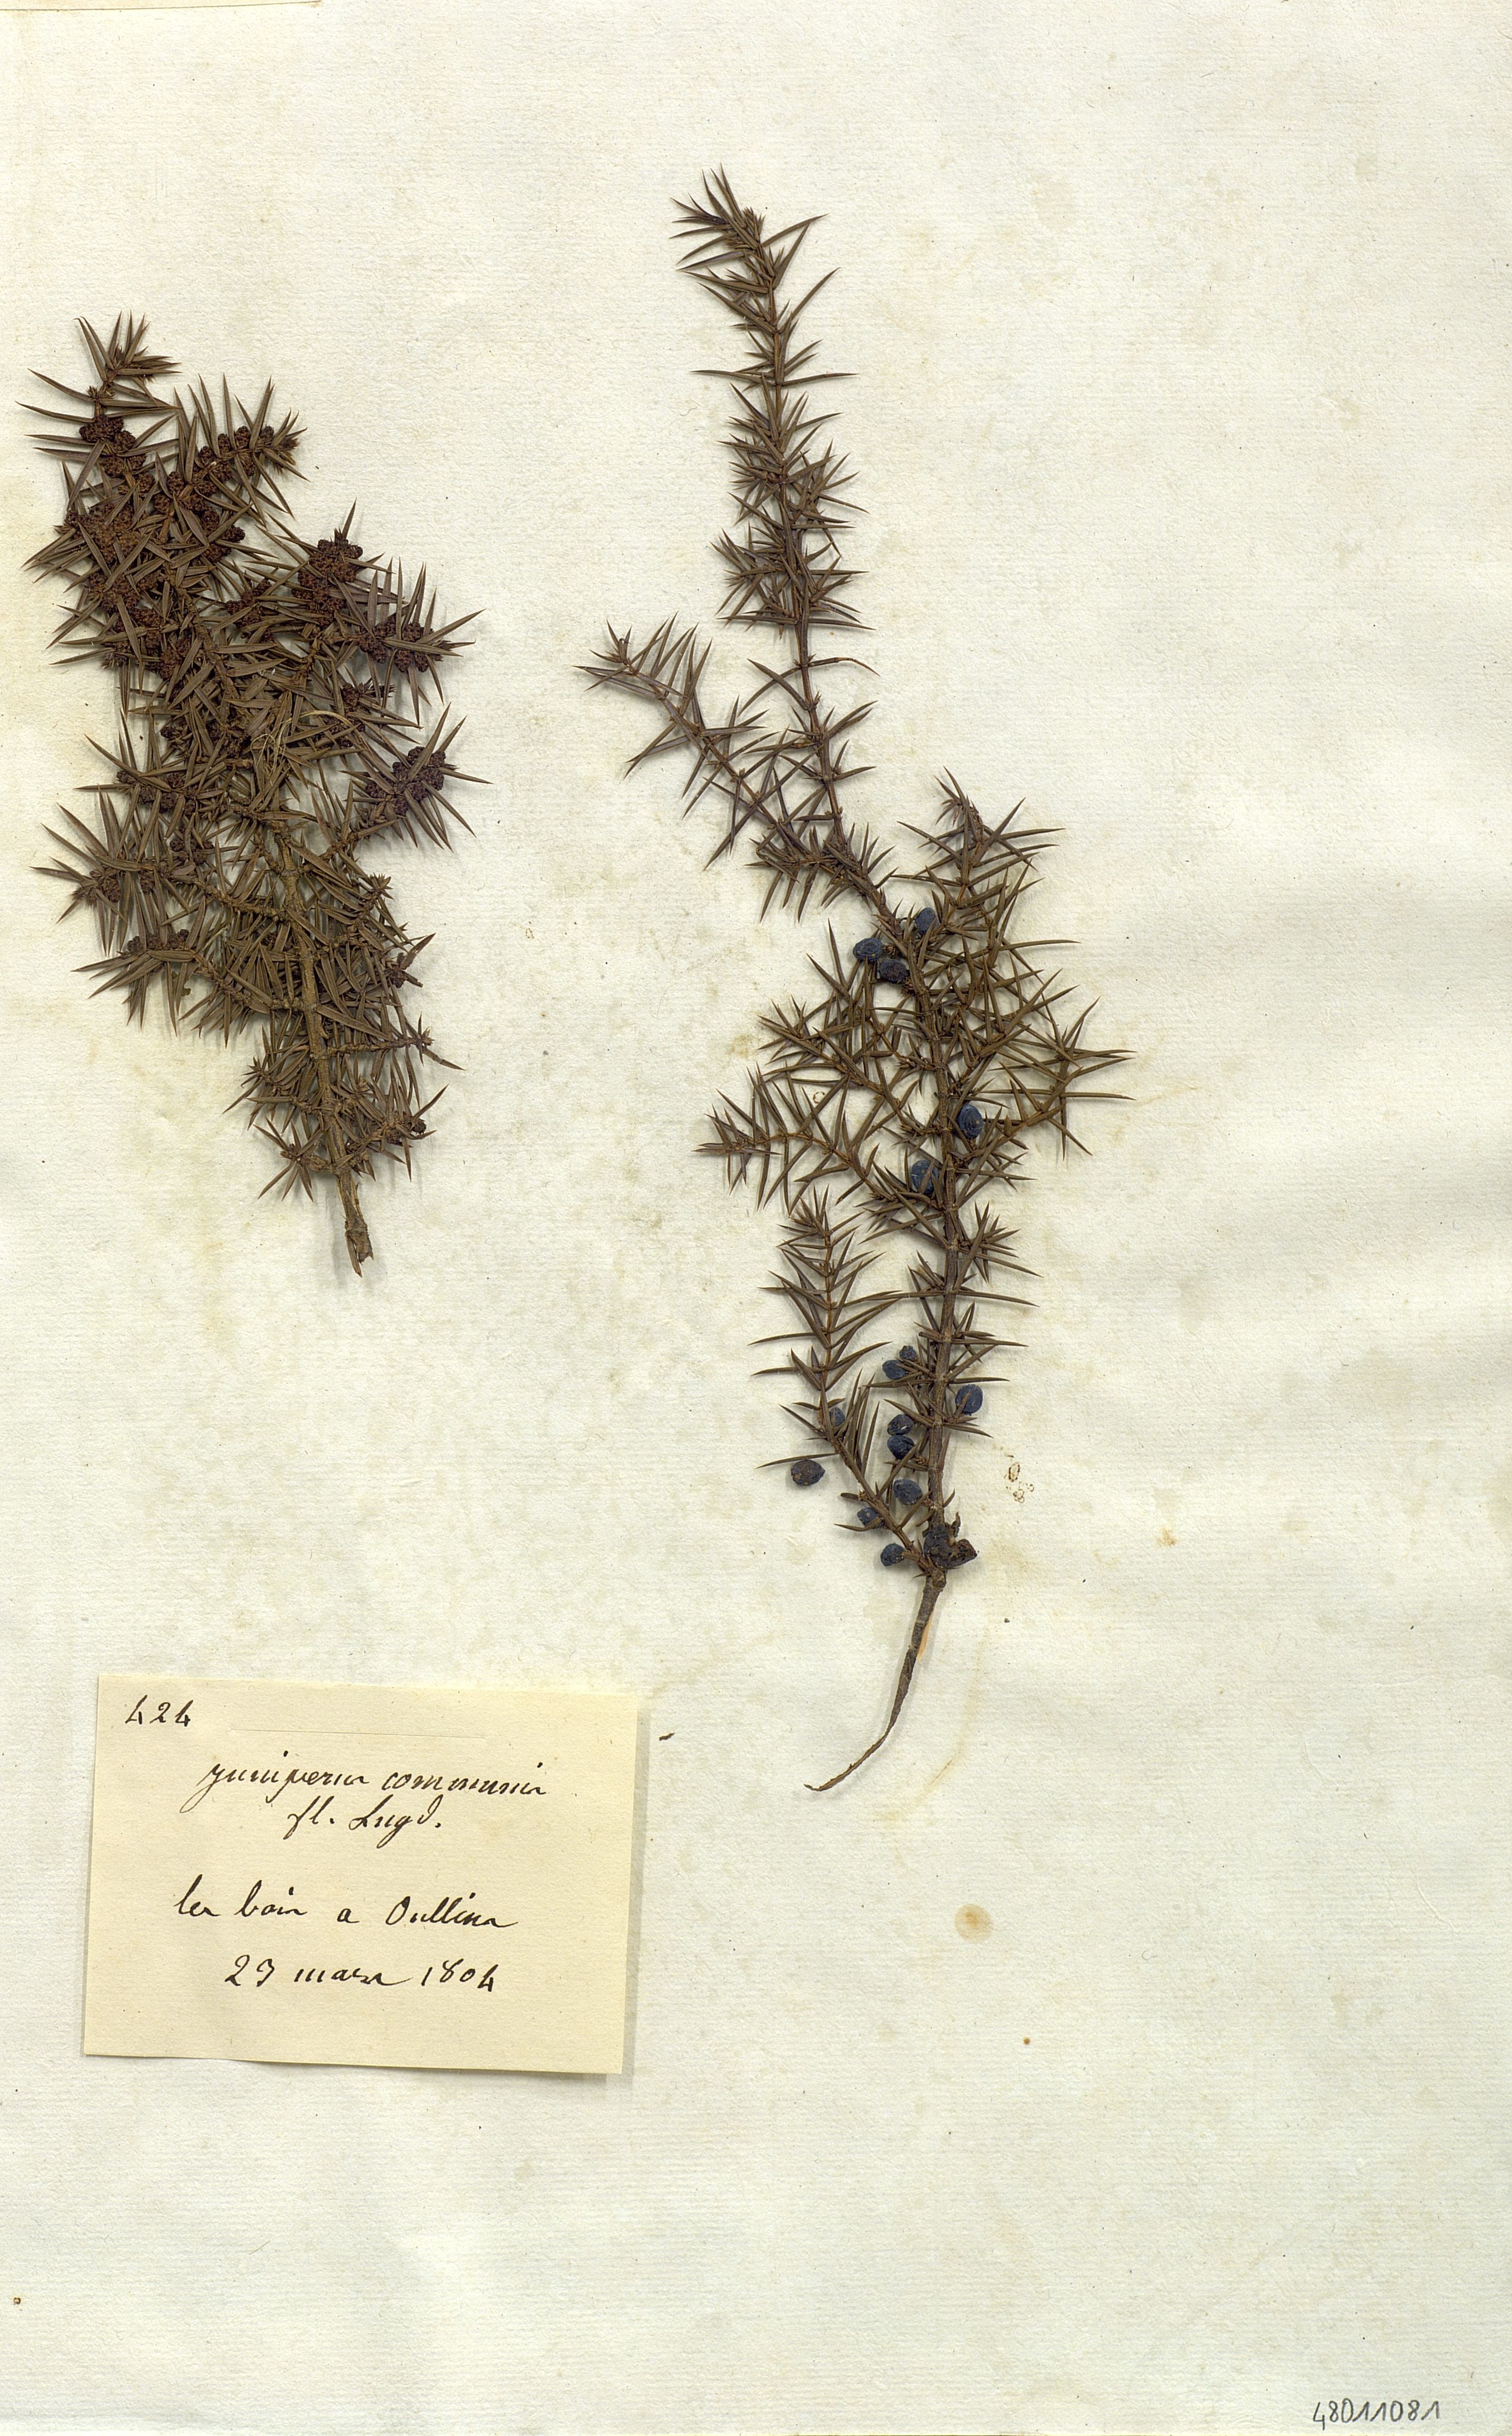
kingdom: Plantae
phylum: Tracheophyta
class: Pinopsida
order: Pinales
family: Cupressaceae
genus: Juniperus
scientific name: Juniperus communis
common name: Common juniper
